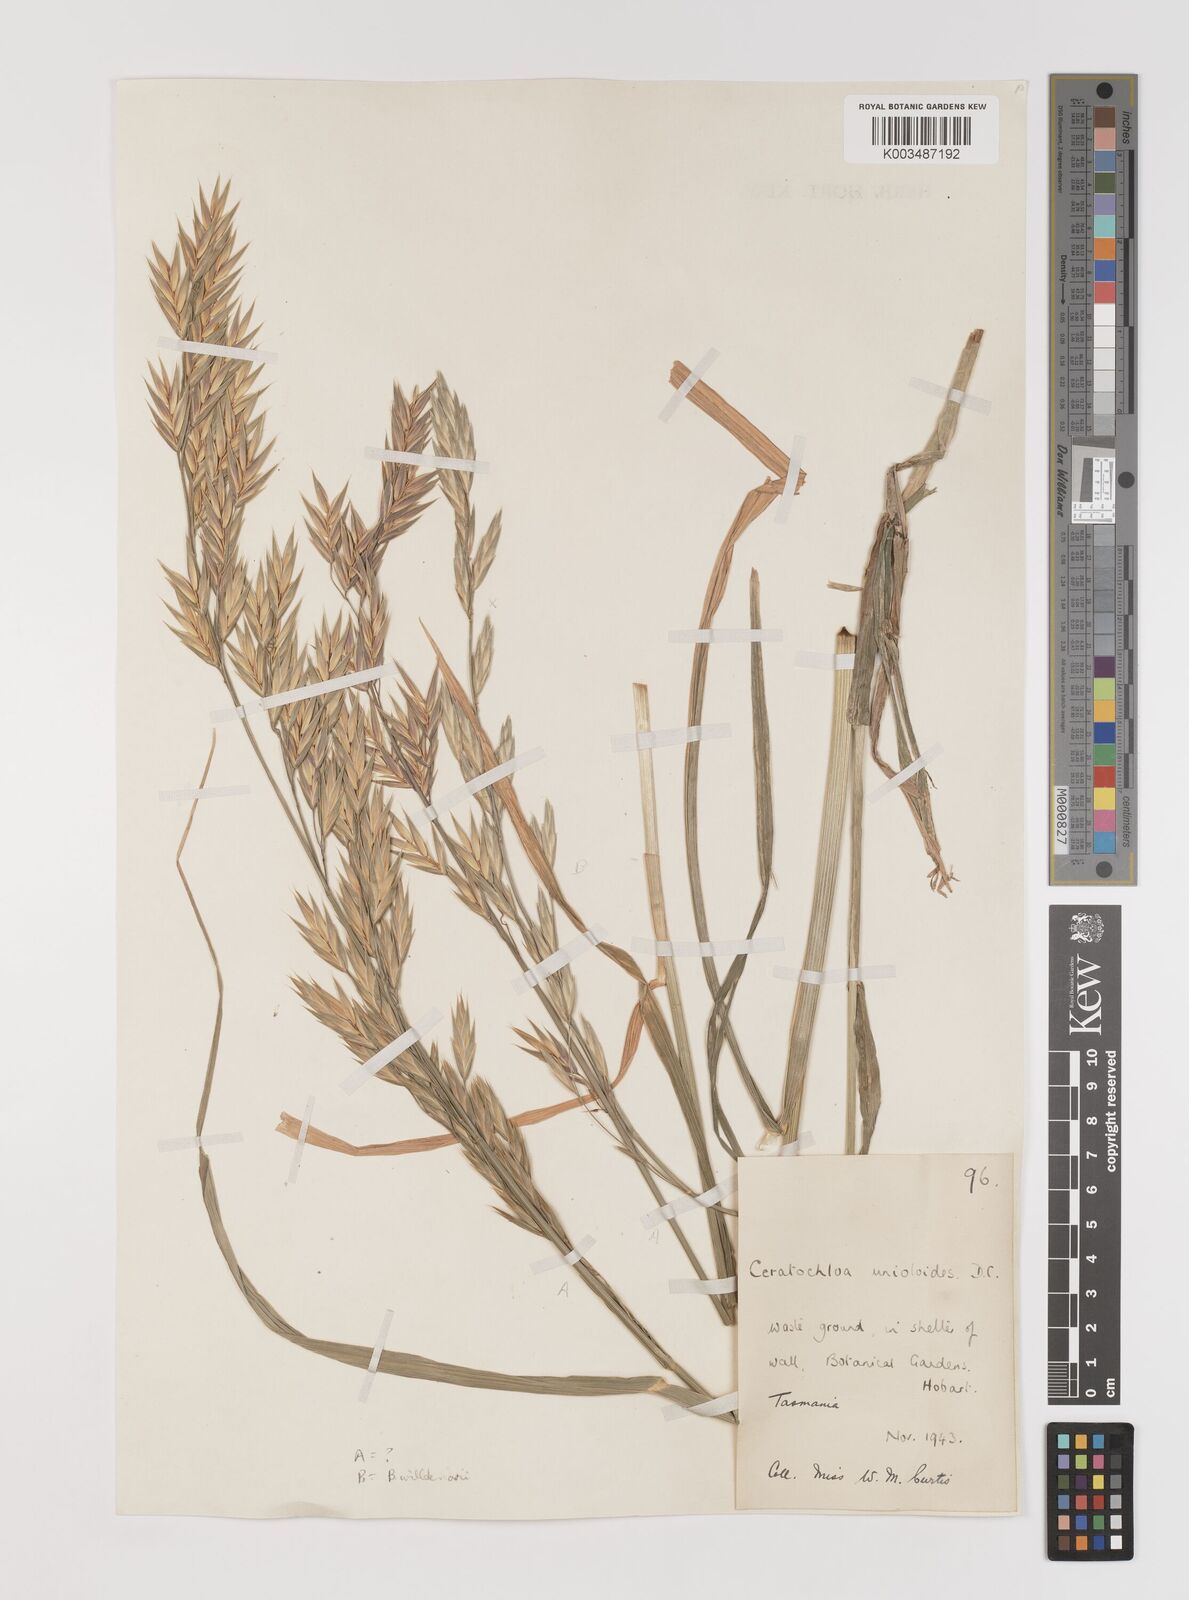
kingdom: Plantae
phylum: Tracheophyta
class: Liliopsida
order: Poales
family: Poaceae
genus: Bromus
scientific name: Bromus catharticus
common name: Rescuegrass
